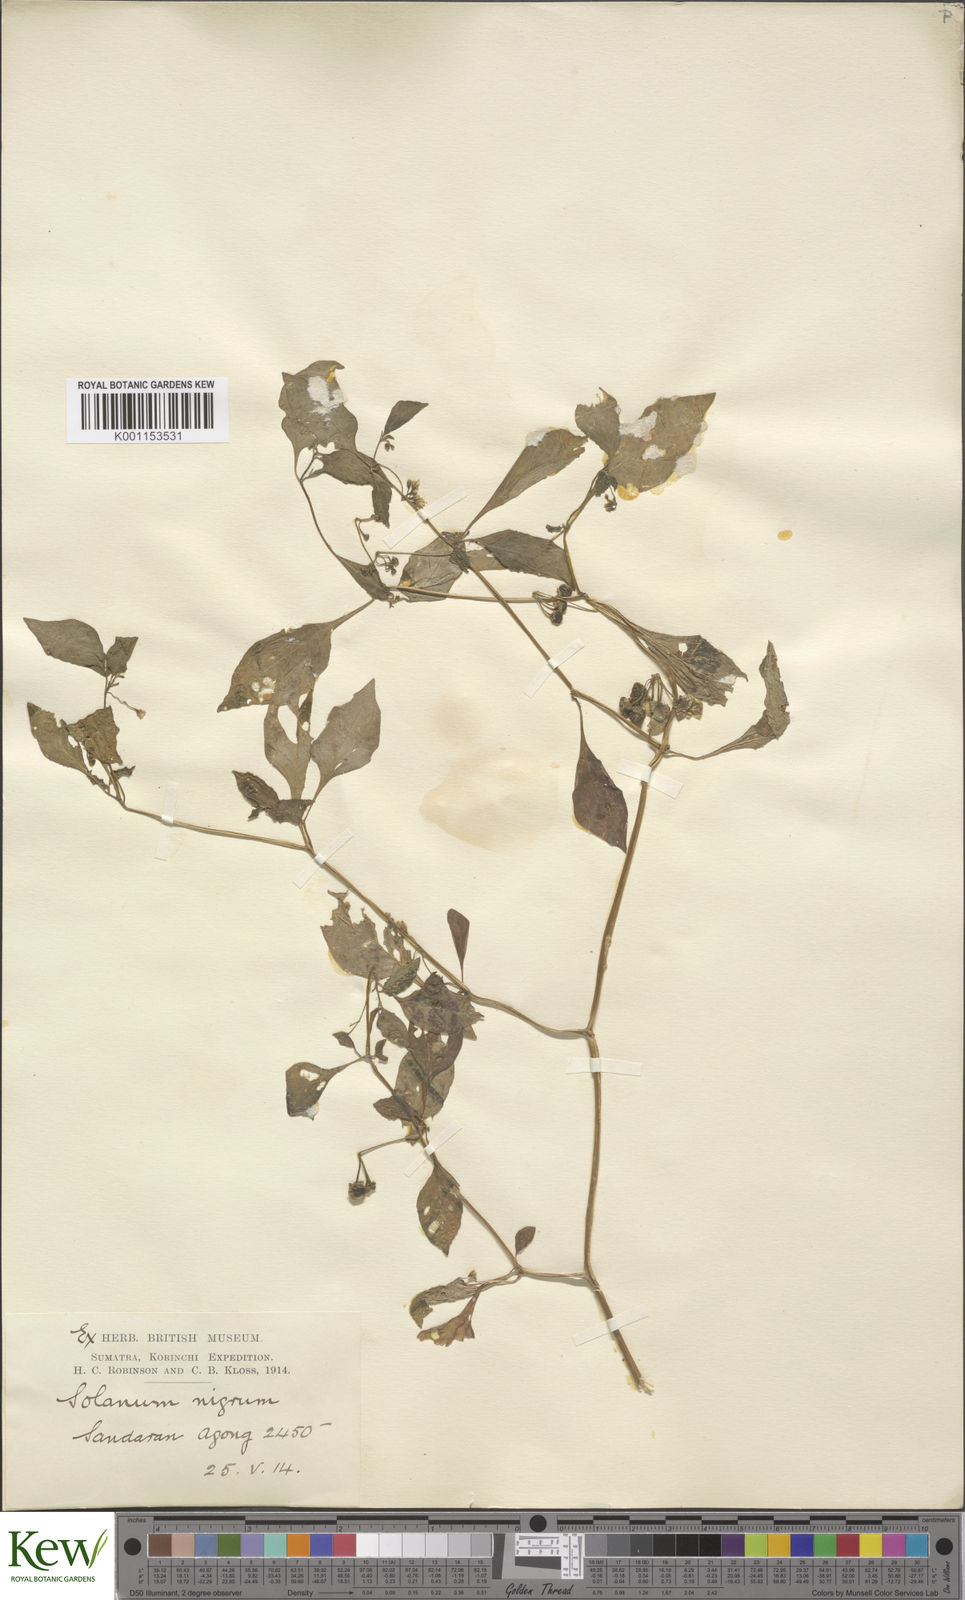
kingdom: Plantae
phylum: Tracheophyta
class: Magnoliopsida
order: Solanales
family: Solanaceae
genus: Solanum
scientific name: Solanum nigrum
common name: Black nightshade
